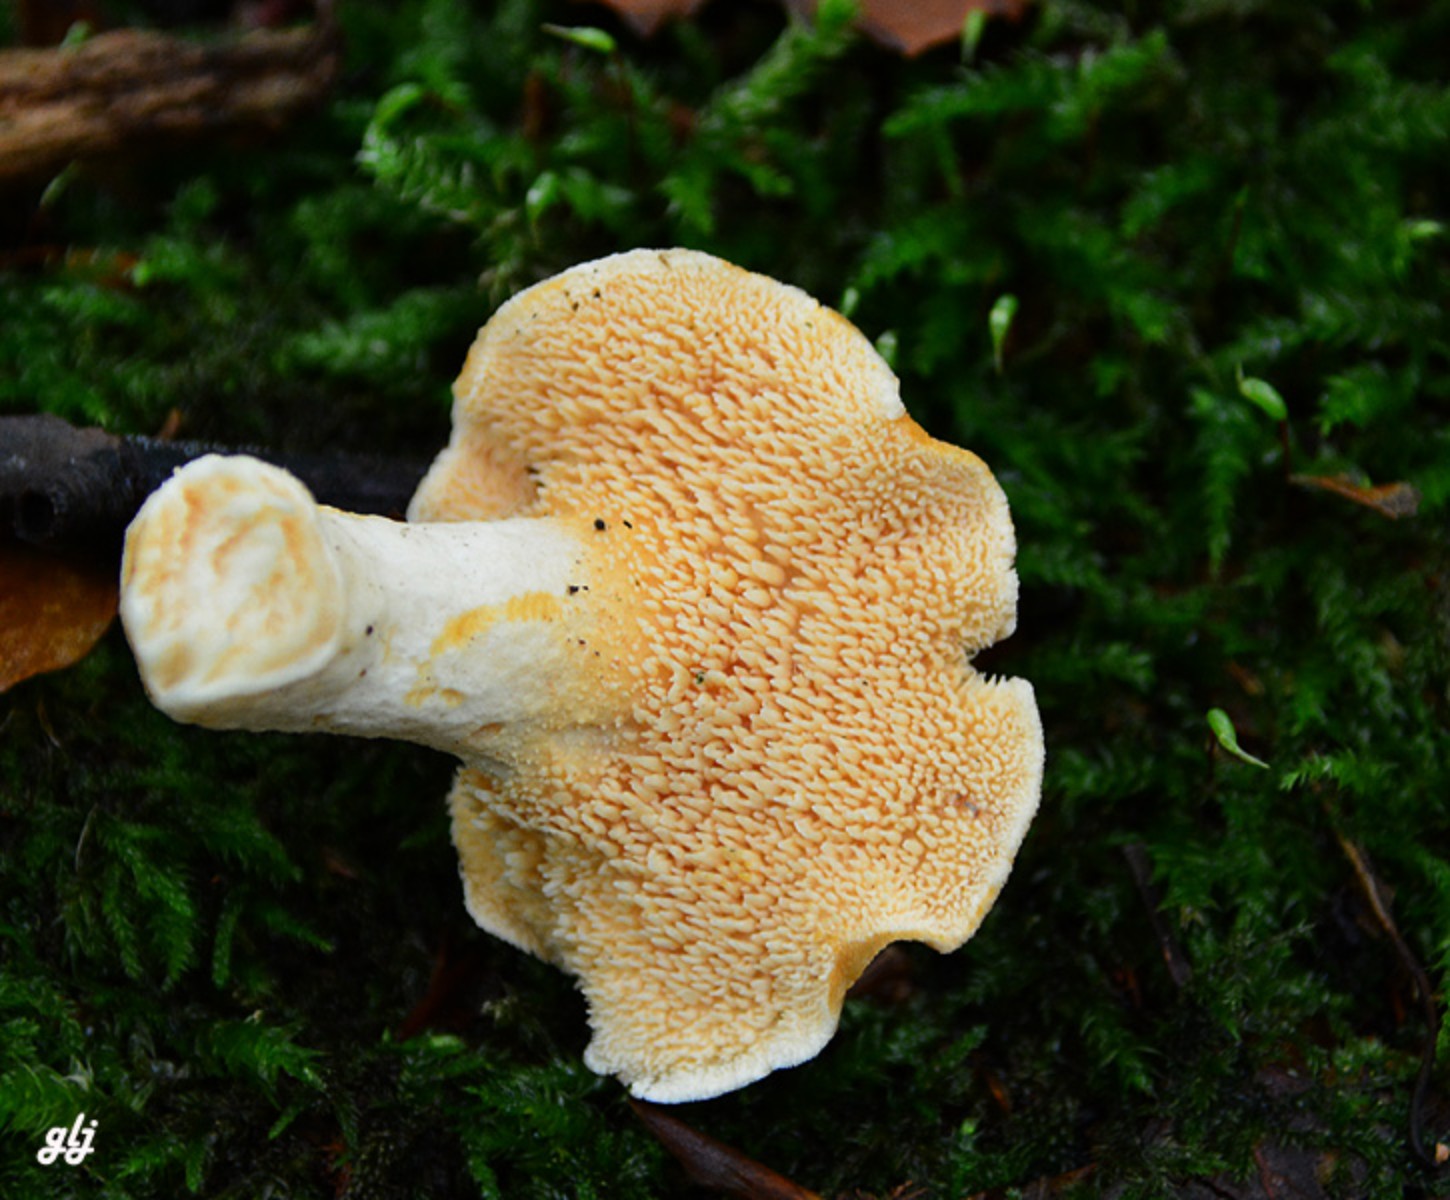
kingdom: Fungi
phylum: Basidiomycota
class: Agaricomycetes
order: Cantharellales
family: Hydnaceae
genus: Hydnum
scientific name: Hydnum rufescens
